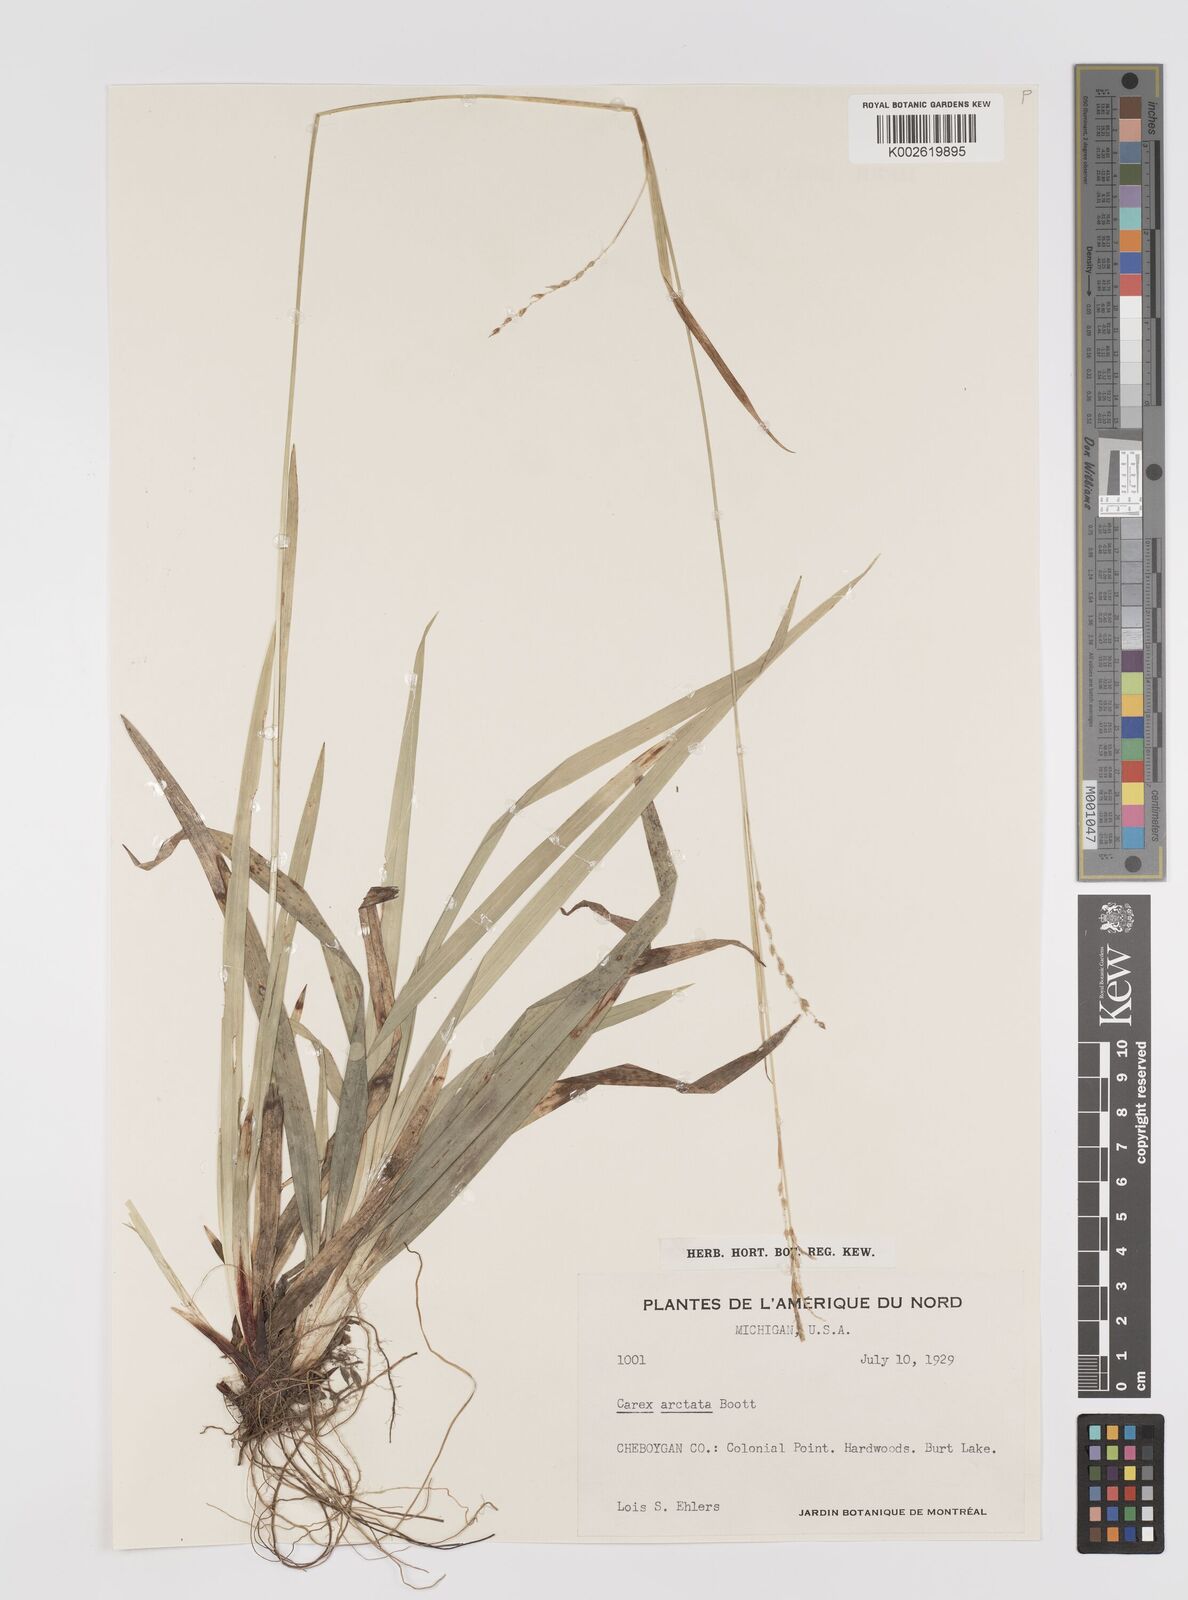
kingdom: Plantae
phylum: Tracheophyta
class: Liliopsida
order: Poales
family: Cyperaceae
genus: Carex
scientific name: Carex arctata
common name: Black sedge
